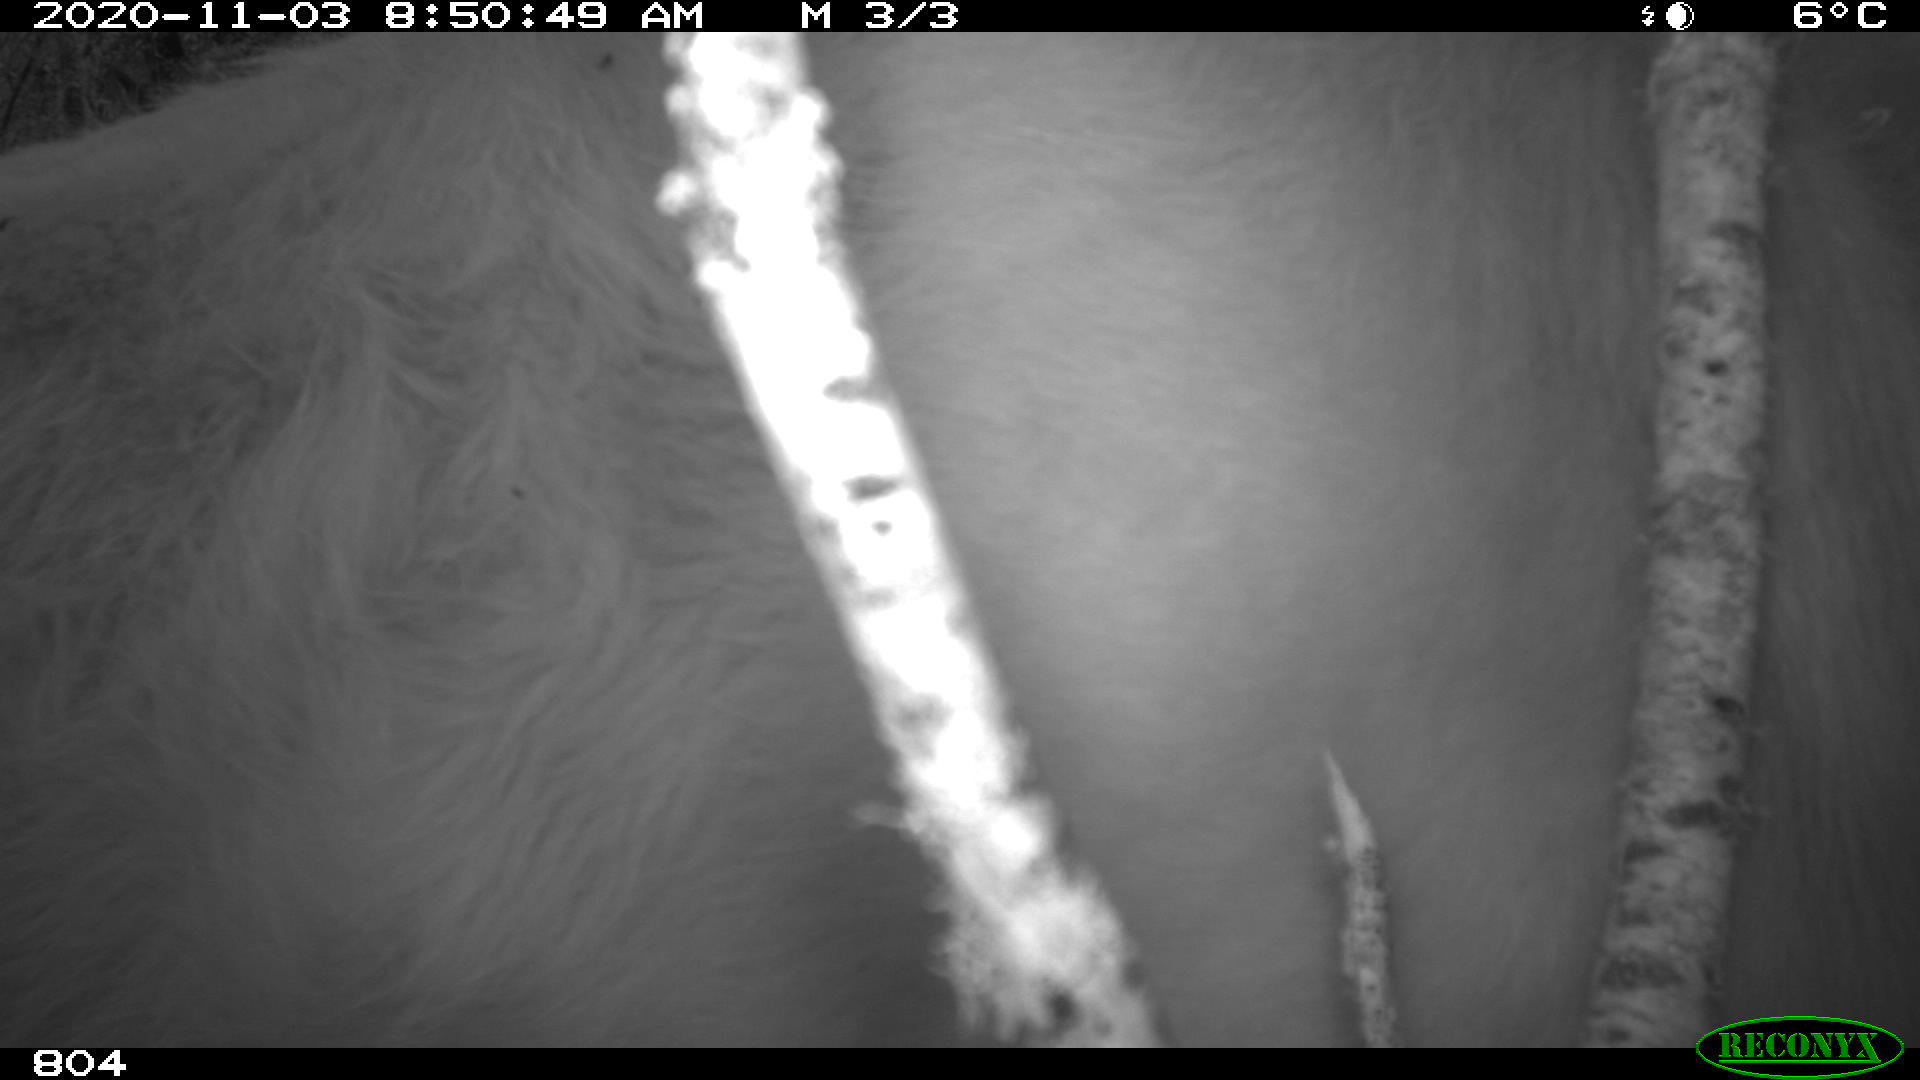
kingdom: Animalia
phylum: Chordata
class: Mammalia
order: Carnivora
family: Canidae
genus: Canis
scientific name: Canis lupus
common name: Gray wolf
